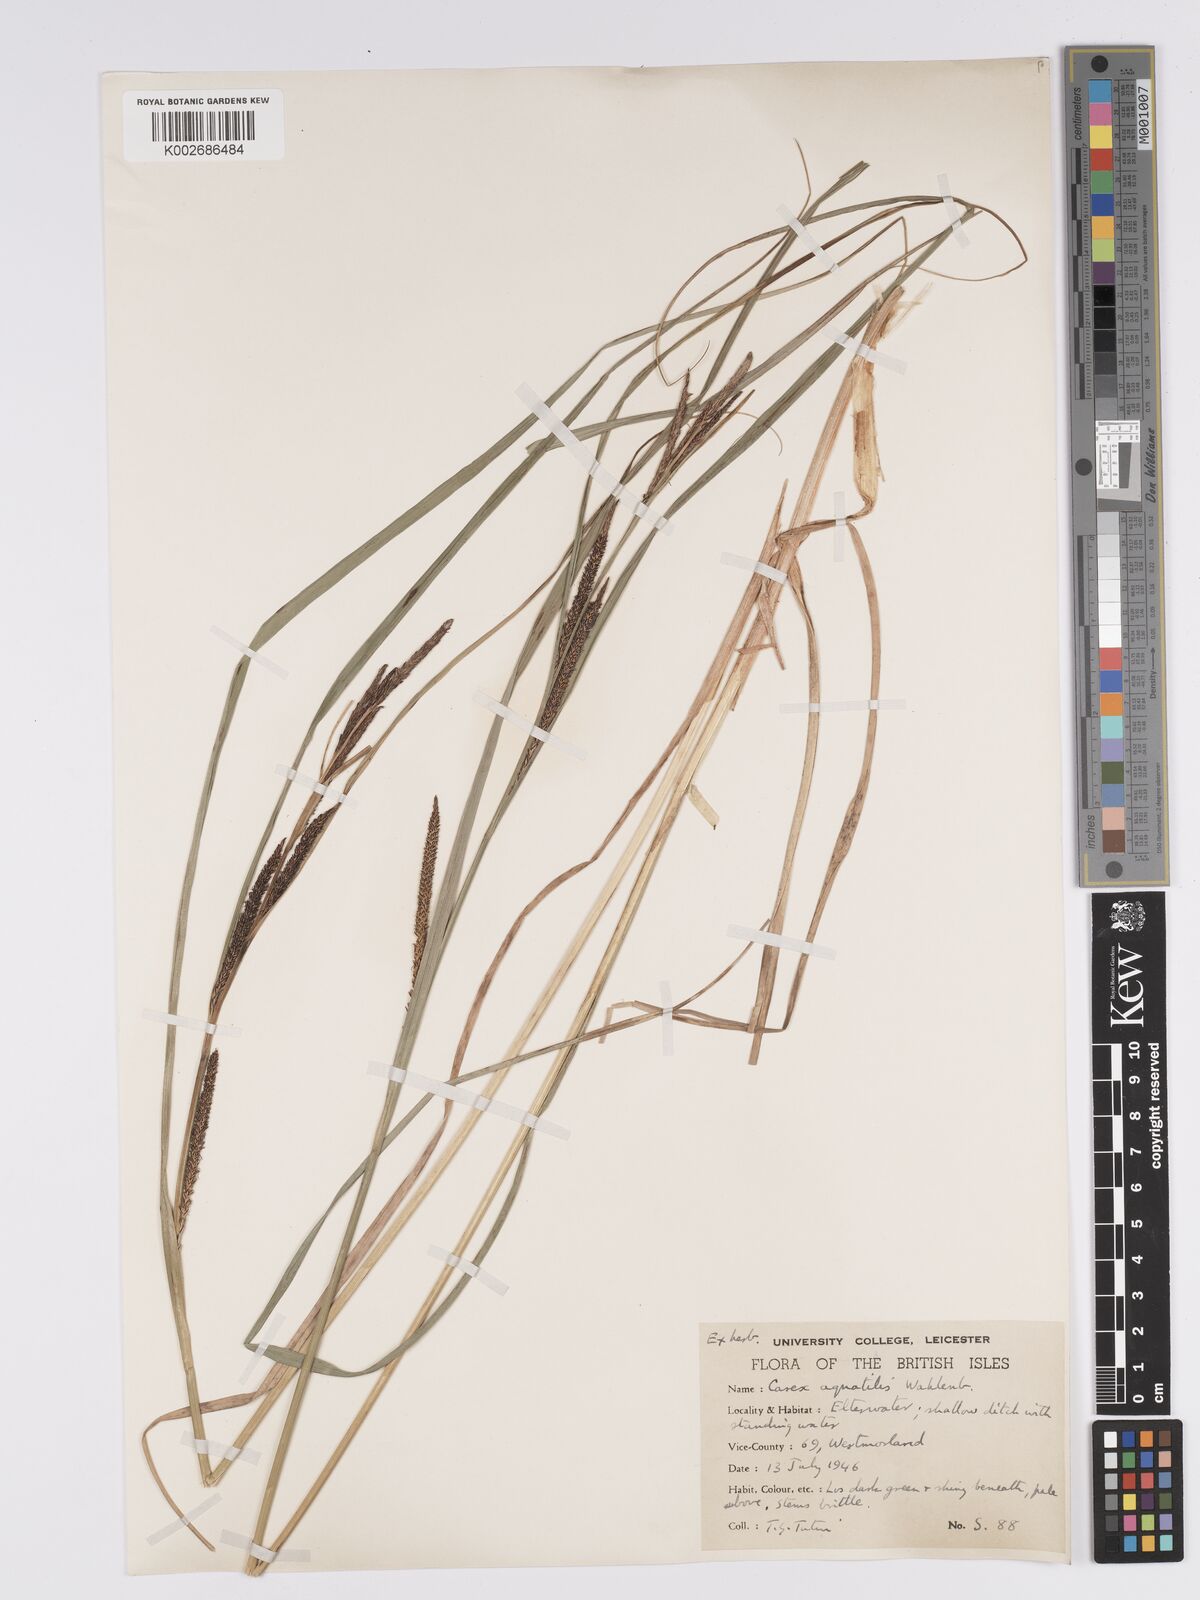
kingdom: Plantae
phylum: Tracheophyta
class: Liliopsida
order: Poales
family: Cyperaceae
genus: Carex
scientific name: Carex microcarpa
